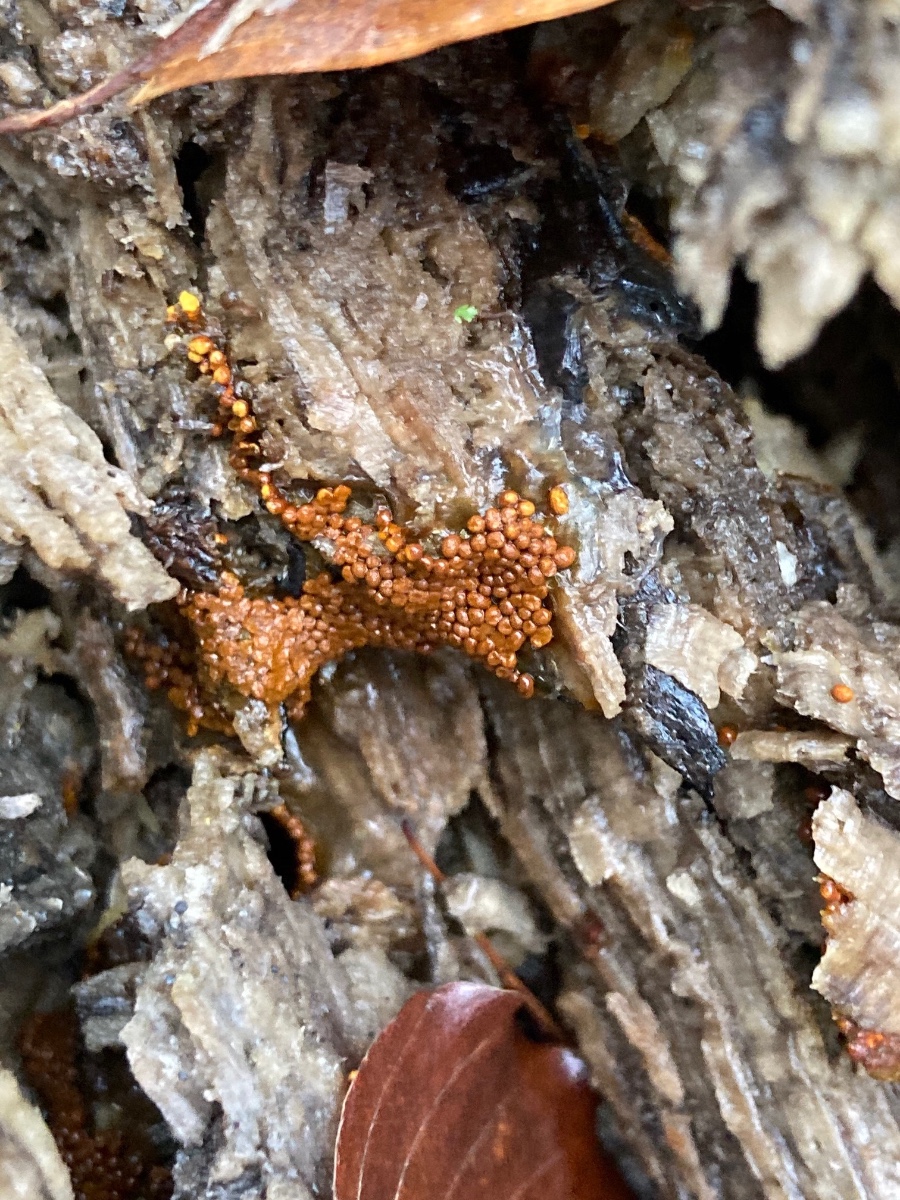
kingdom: Protozoa
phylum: Mycetozoa
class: Myxomycetes
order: Trichiales
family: Trichiaceae
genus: Trichia
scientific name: Trichia scabra
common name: tæppe-hårbold
